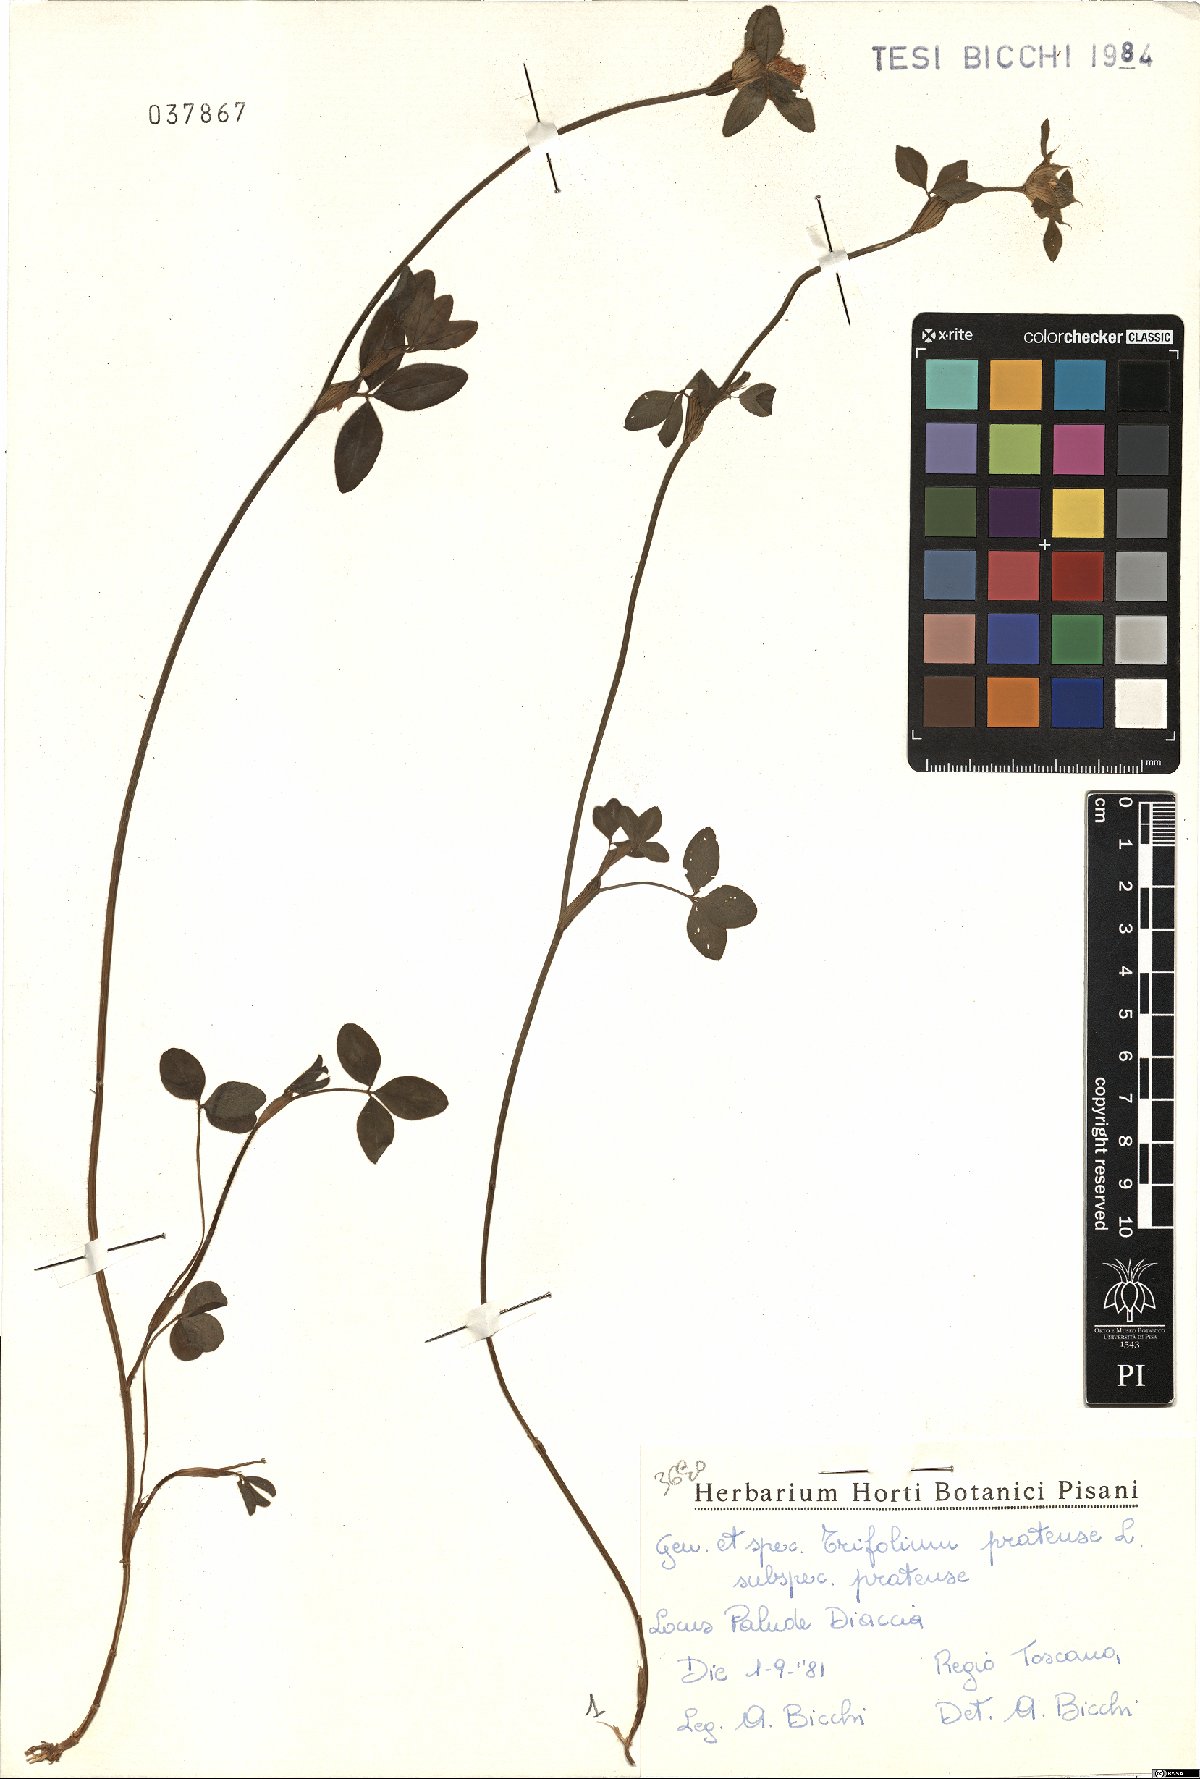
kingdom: Plantae
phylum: Tracheophyta
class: Magnoliopsida
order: Fabales
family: Fabaceae
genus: Trifolium
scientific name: Trifolium pratense
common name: Red clover
